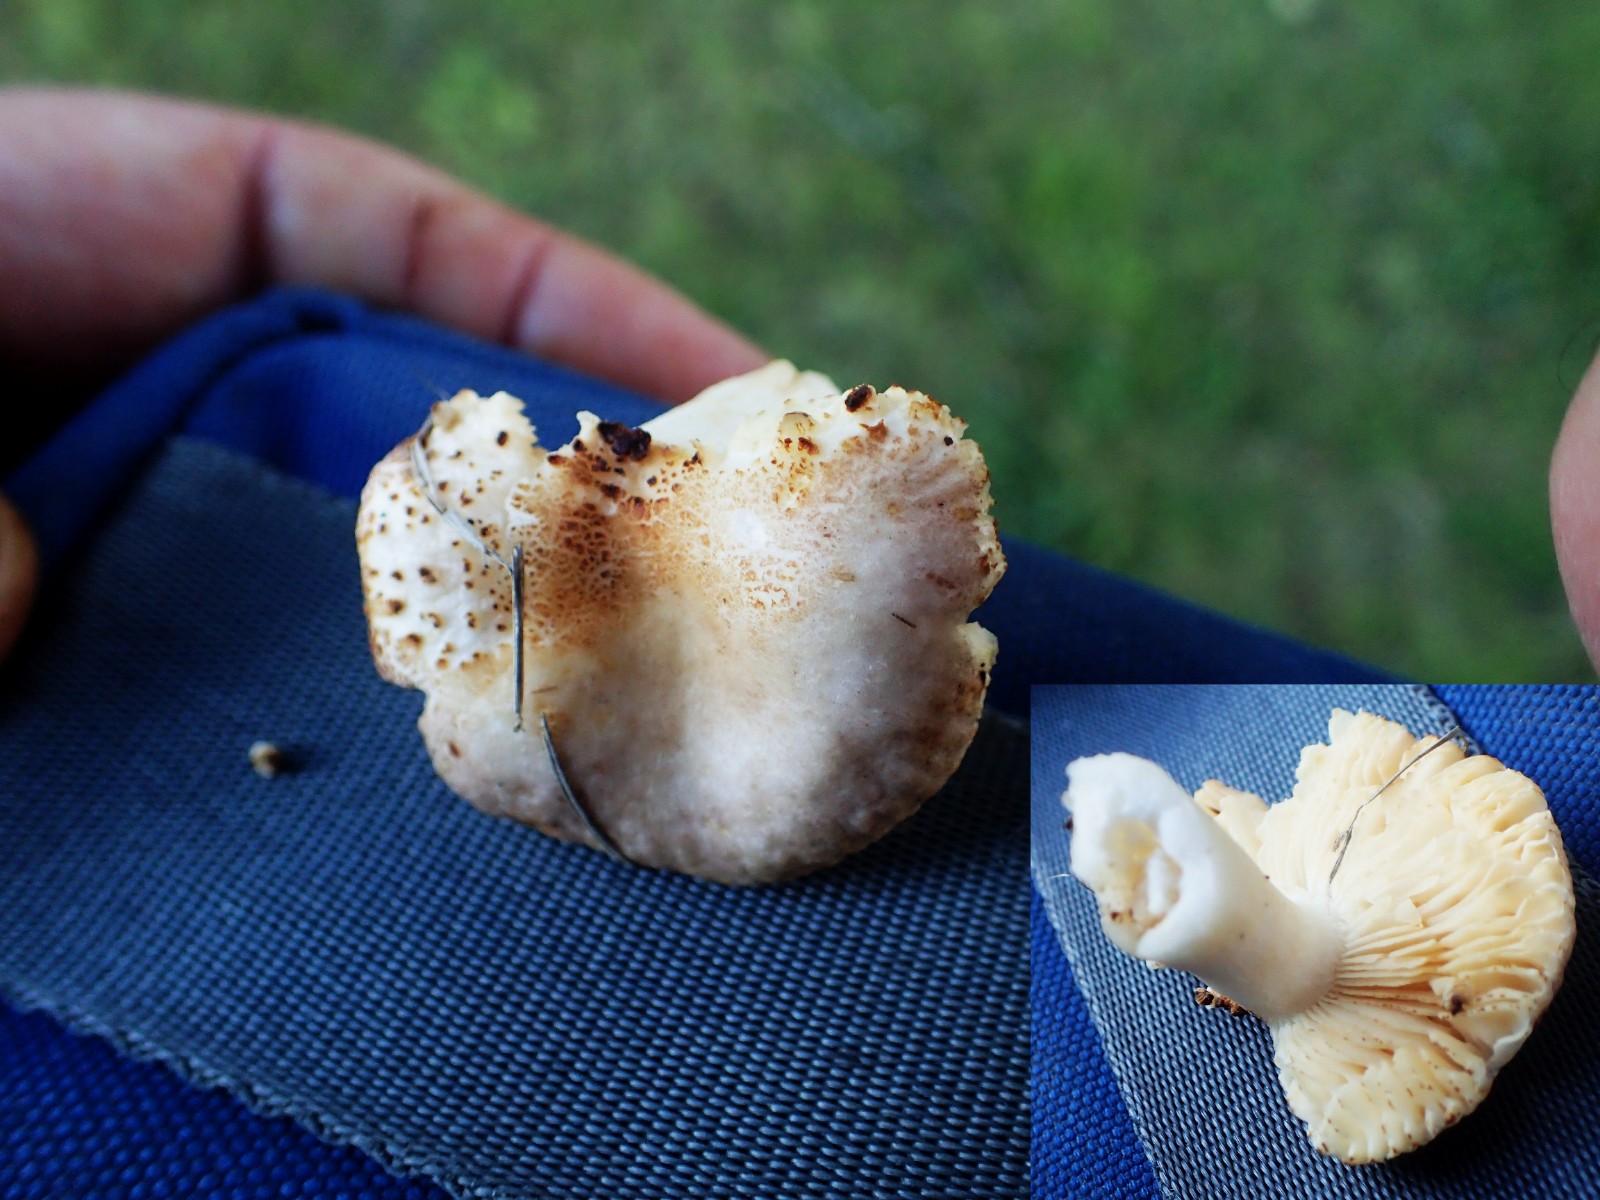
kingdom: Fungi
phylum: Basidiomycota
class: Agaricomycetes
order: Russulales
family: Russulaceae
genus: Russula
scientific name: Russula odorata
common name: duft-skørhat
